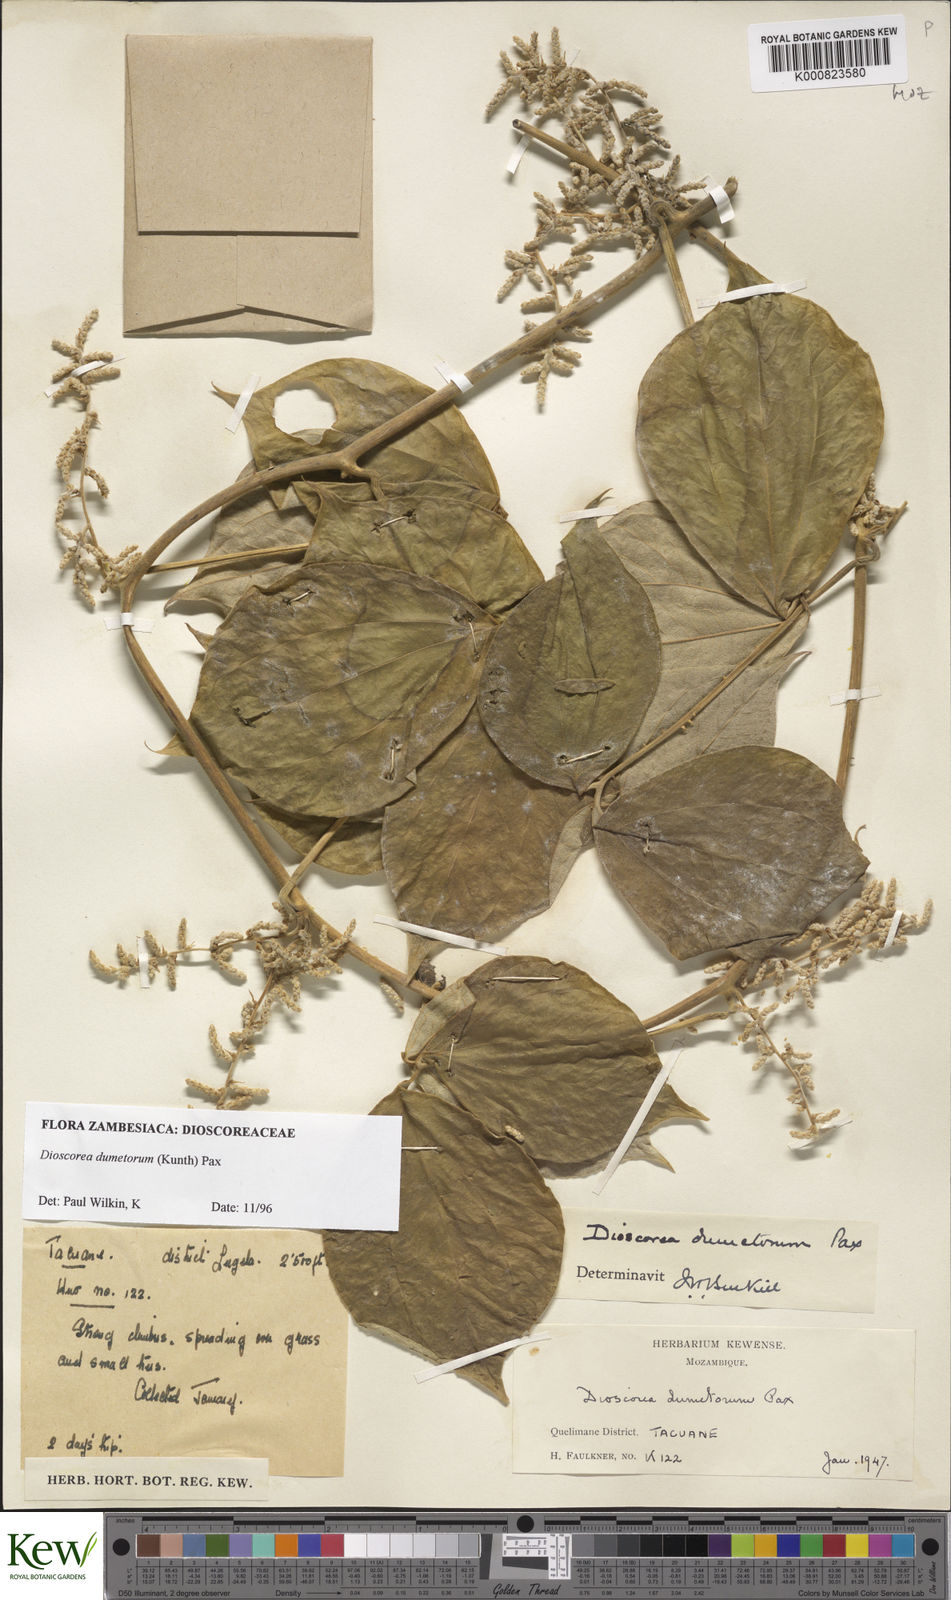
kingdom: Plantae
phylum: Tracheophyta
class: Liliopsida
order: Dioscoreales
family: Dioscoreaceae
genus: Dioscorea
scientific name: Dioscorea dumetorum
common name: African bitter yam
